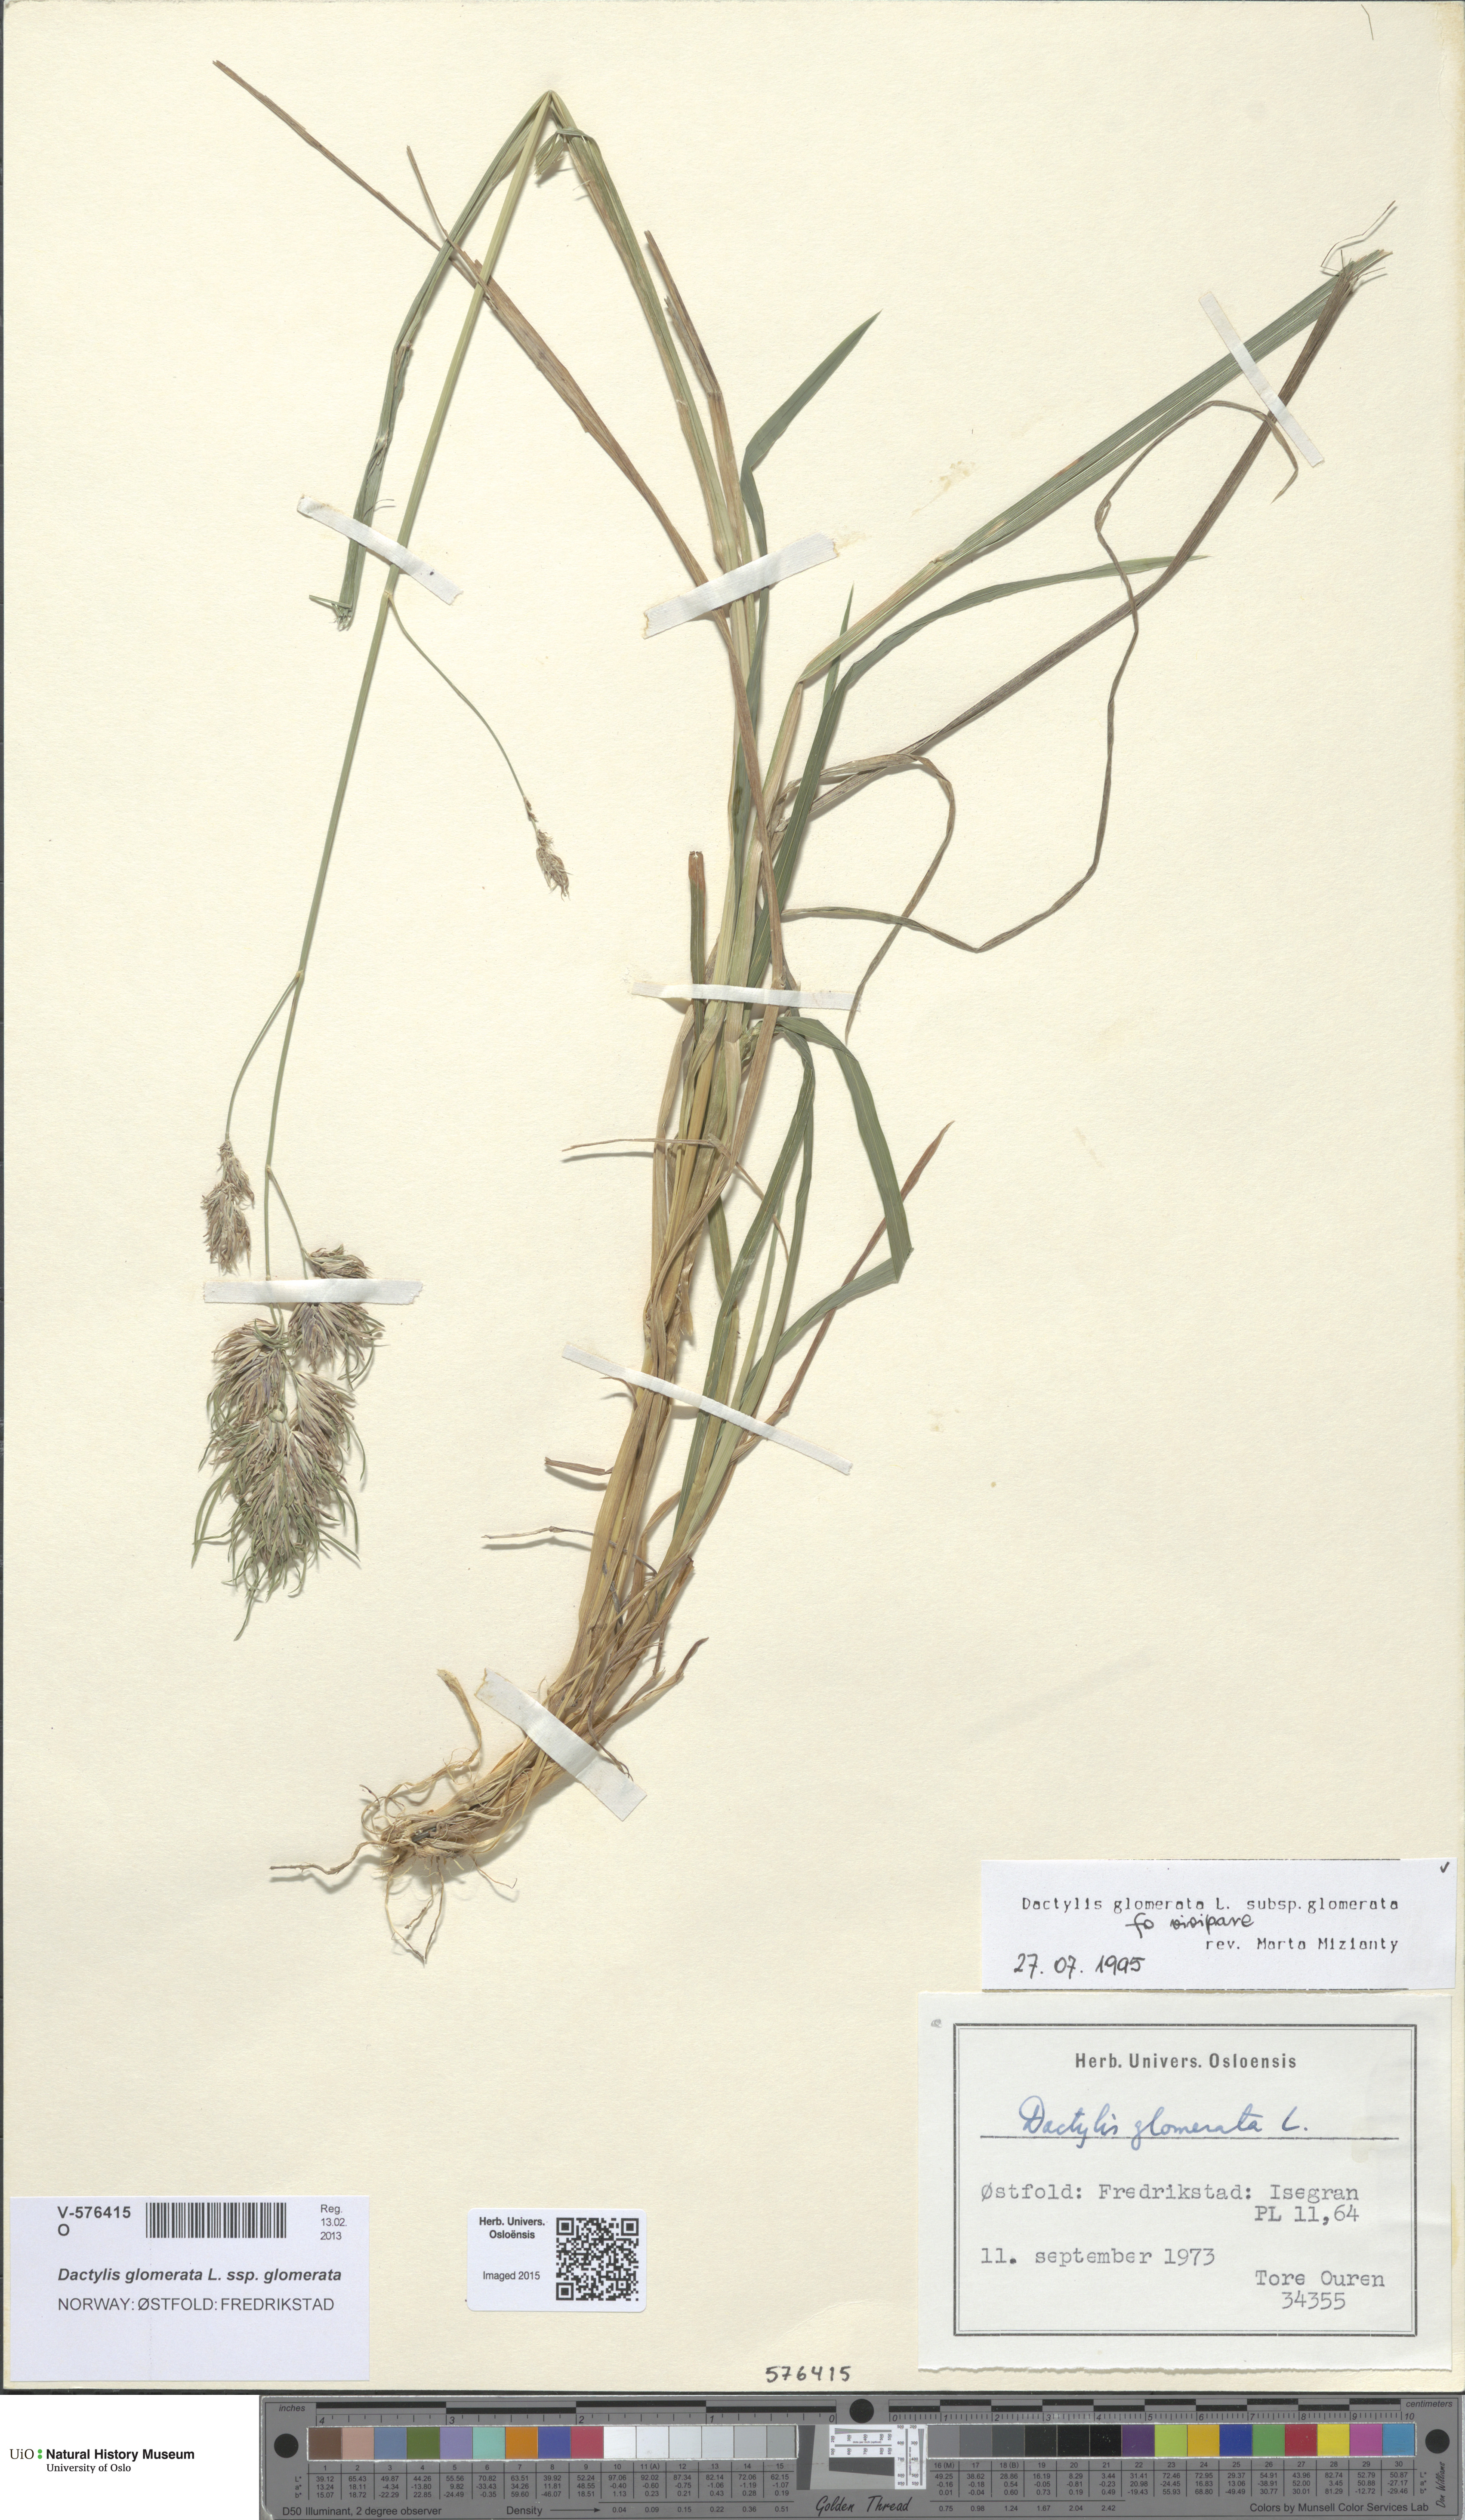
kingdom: Plantae
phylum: Tracheophyta
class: Liliopsida
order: Poales
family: Poaceae
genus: Dactylis
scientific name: Dactylis glomerata
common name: Orchardgrass
